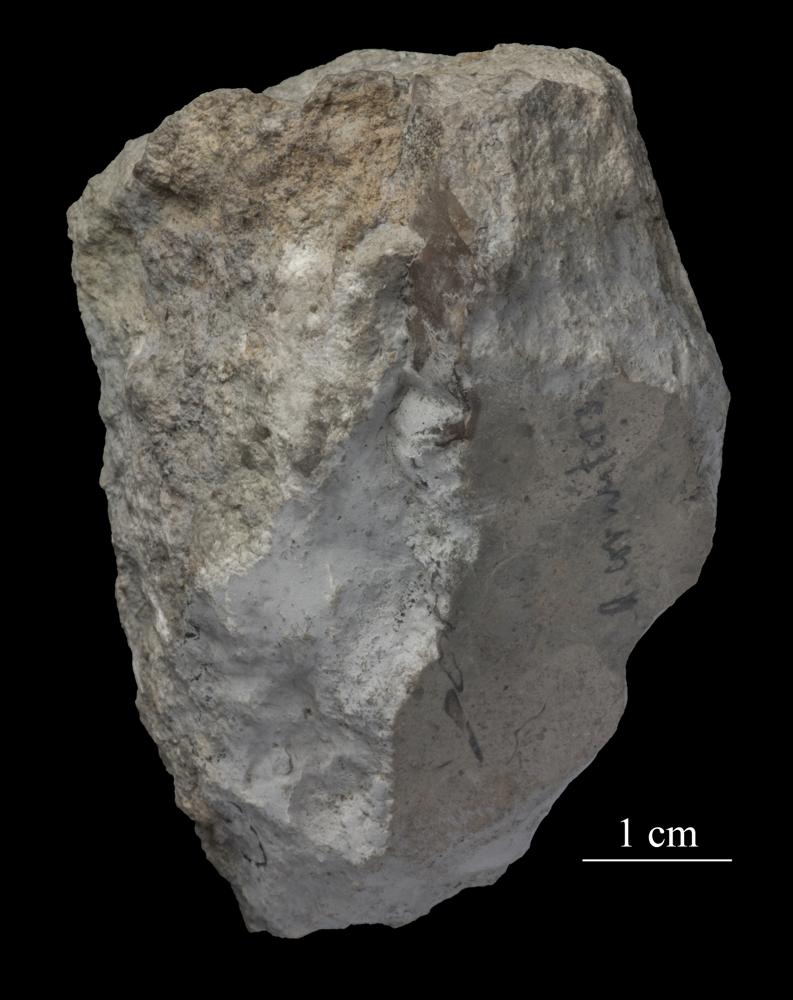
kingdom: Animalia
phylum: Arthropoda
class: Trilobita
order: Asaphida
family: Asaphidae
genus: Asaphus
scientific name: Asaphus cornutus
